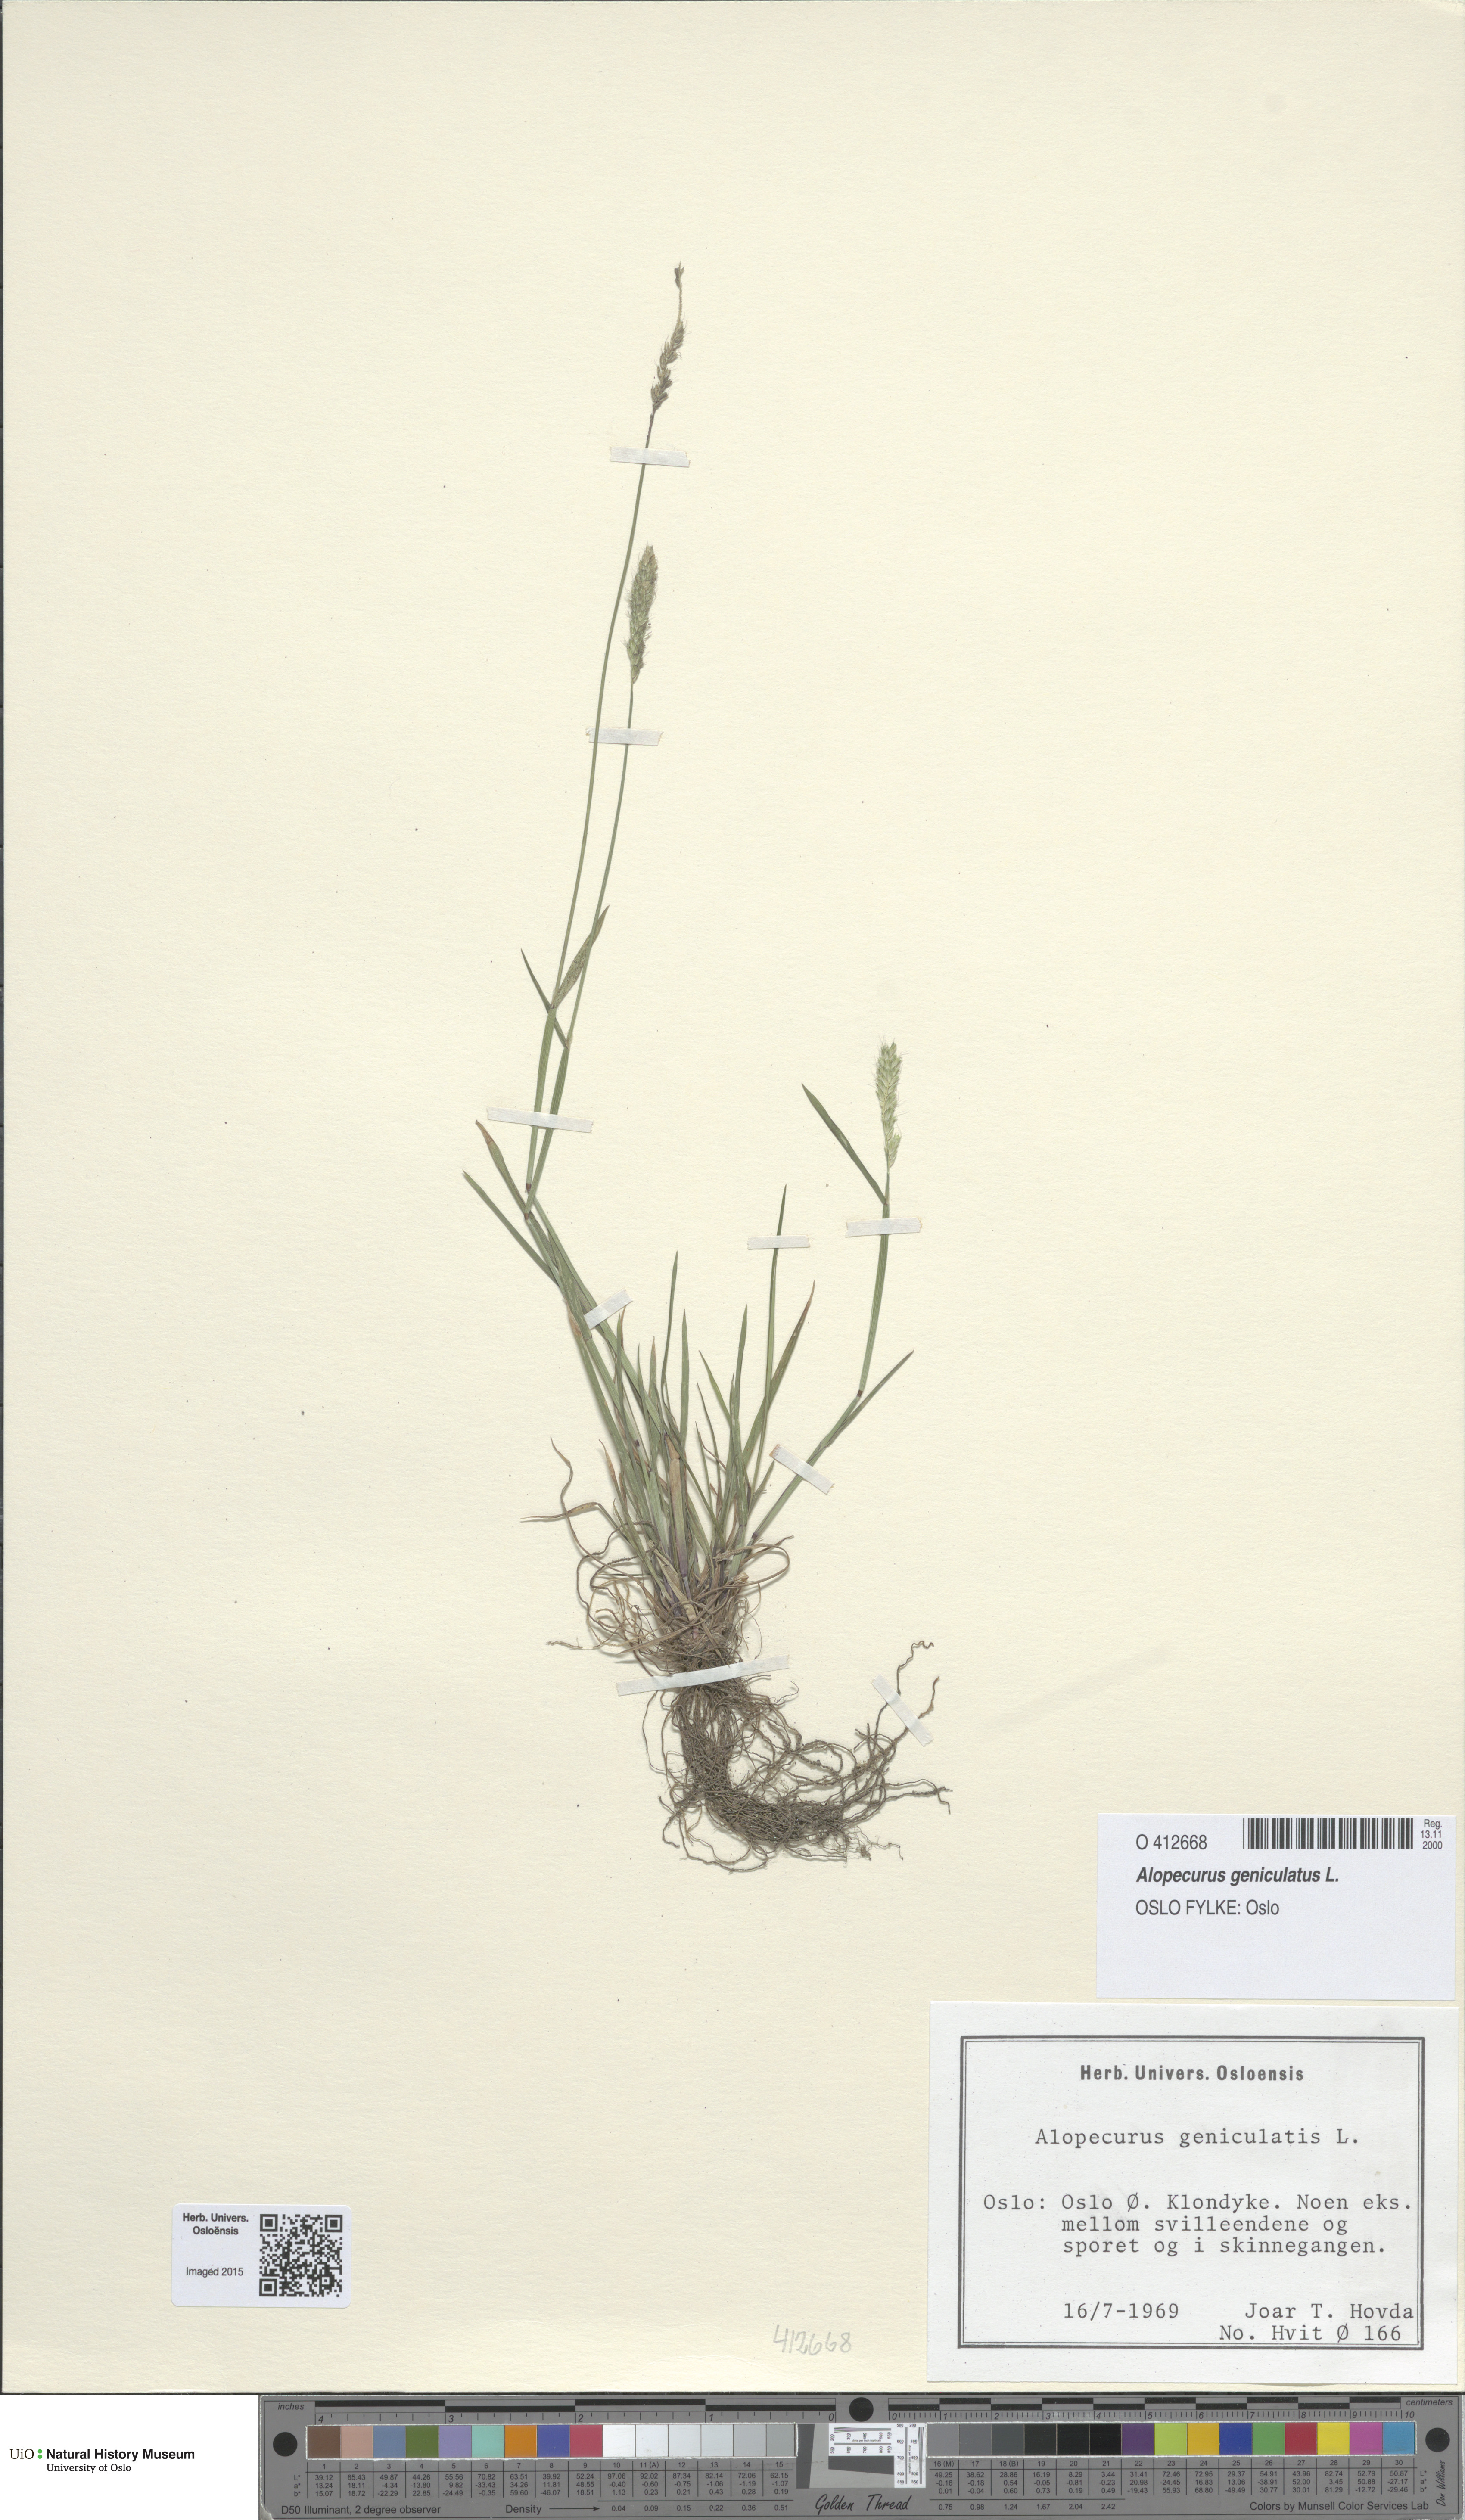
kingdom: Plantae
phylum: Tracheophyta
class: Liliopsida
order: Poales
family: Poaceae
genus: Alopecurus
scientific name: Alopecurus geniculatus
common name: Water foxtail
